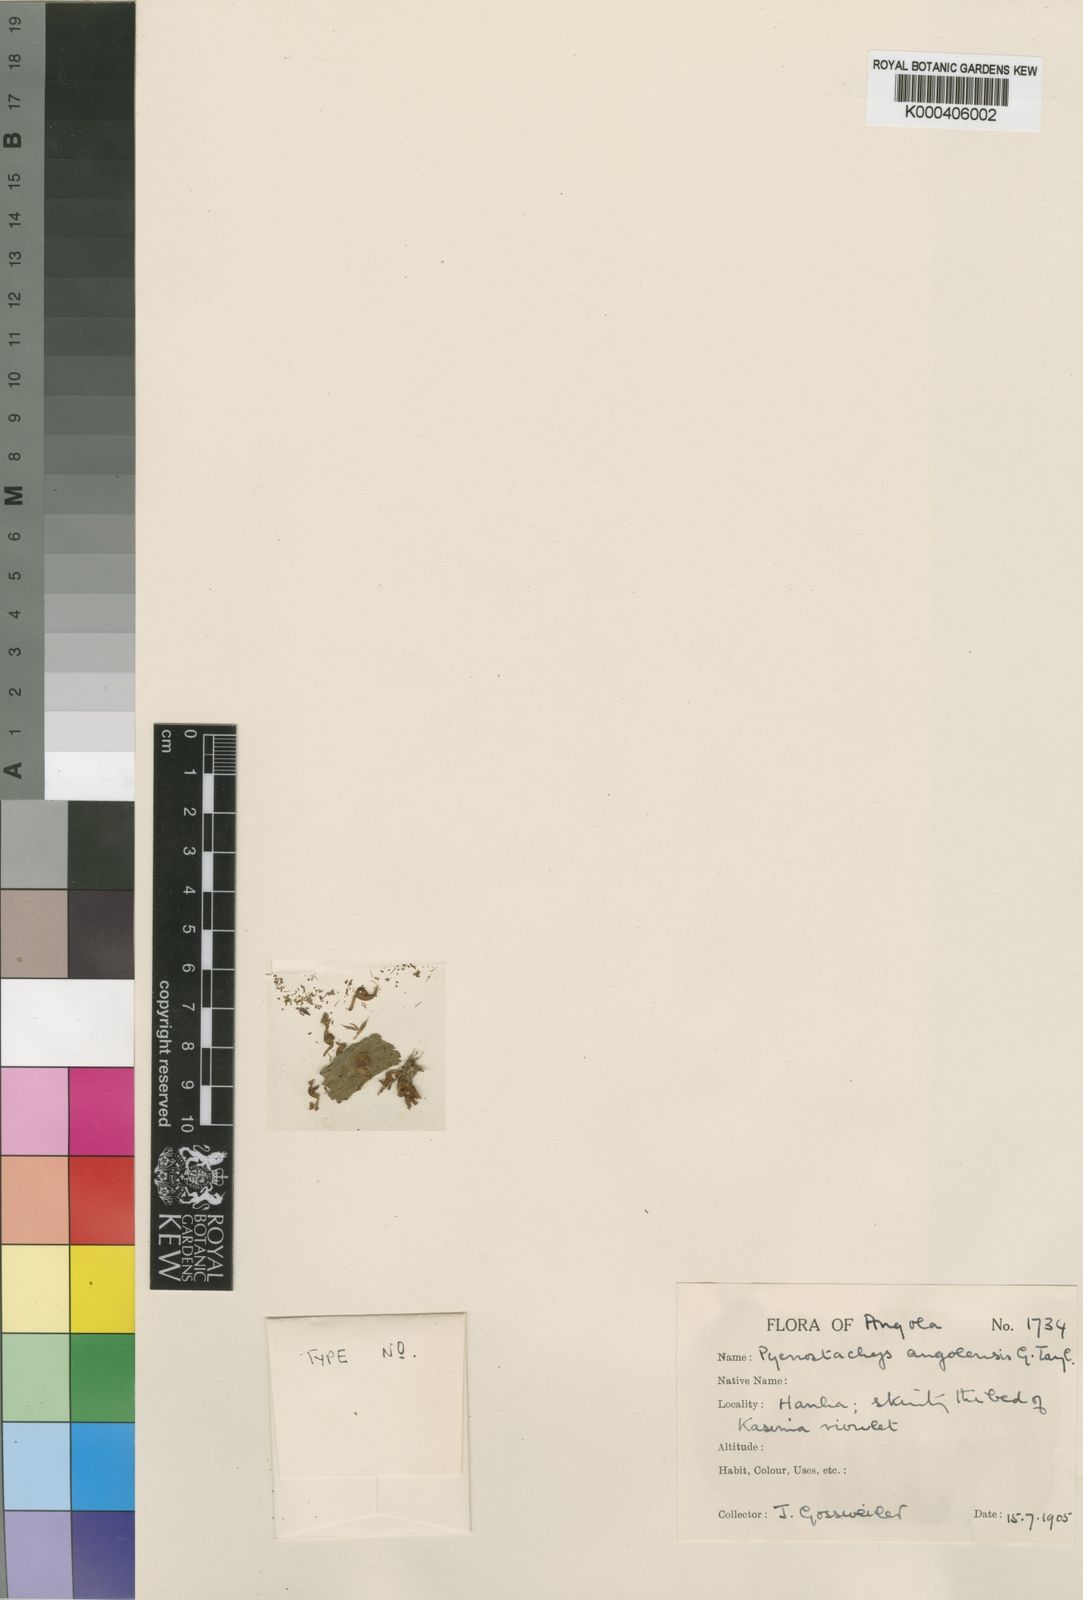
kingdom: Plantae
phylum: Tracheophyta
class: Magnoliopsida
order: Lamiales
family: Lamiaceae
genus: Coleus
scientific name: Coleus angolensis
